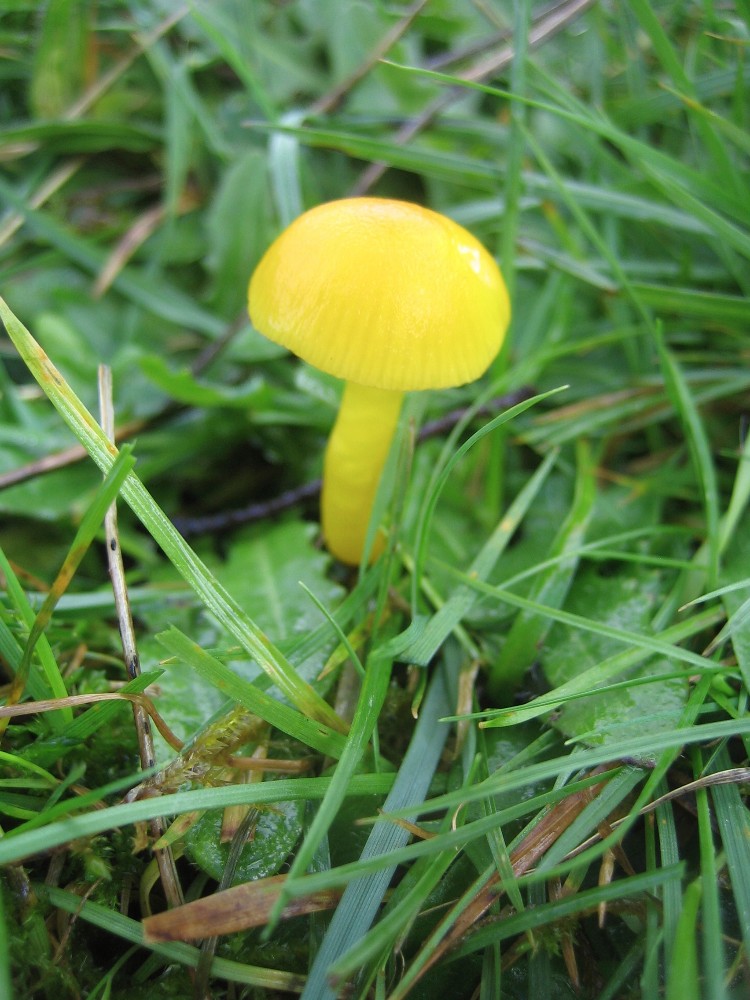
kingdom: Fungi
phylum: Basidiomycota
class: Agaricomycetes
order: Agaricales
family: Hygrophoraceae
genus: Hygrocybe
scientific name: Hygrocybe chlorophana
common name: gul vokshat
